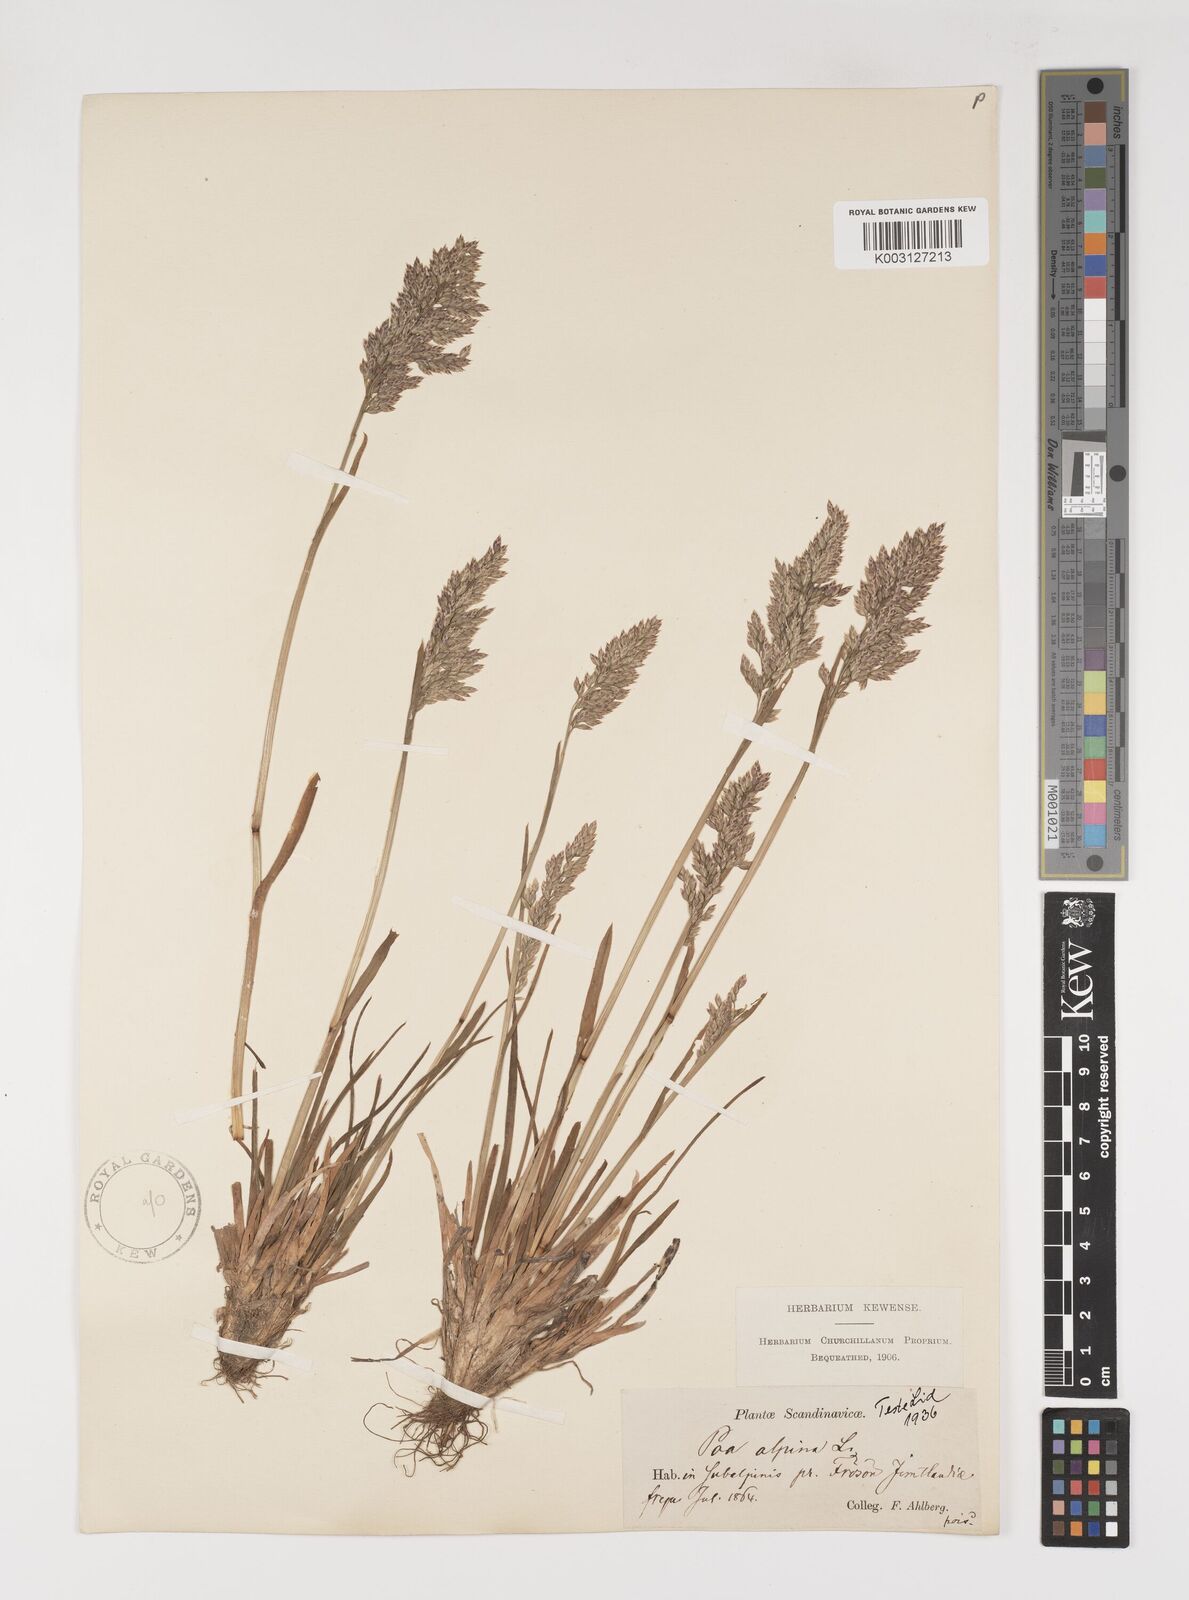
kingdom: Plantae
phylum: Tracheophyta
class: Liliopsida
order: Poales
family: Poaceae
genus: Poa
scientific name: Poa alpina
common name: Alpine bluegrass
